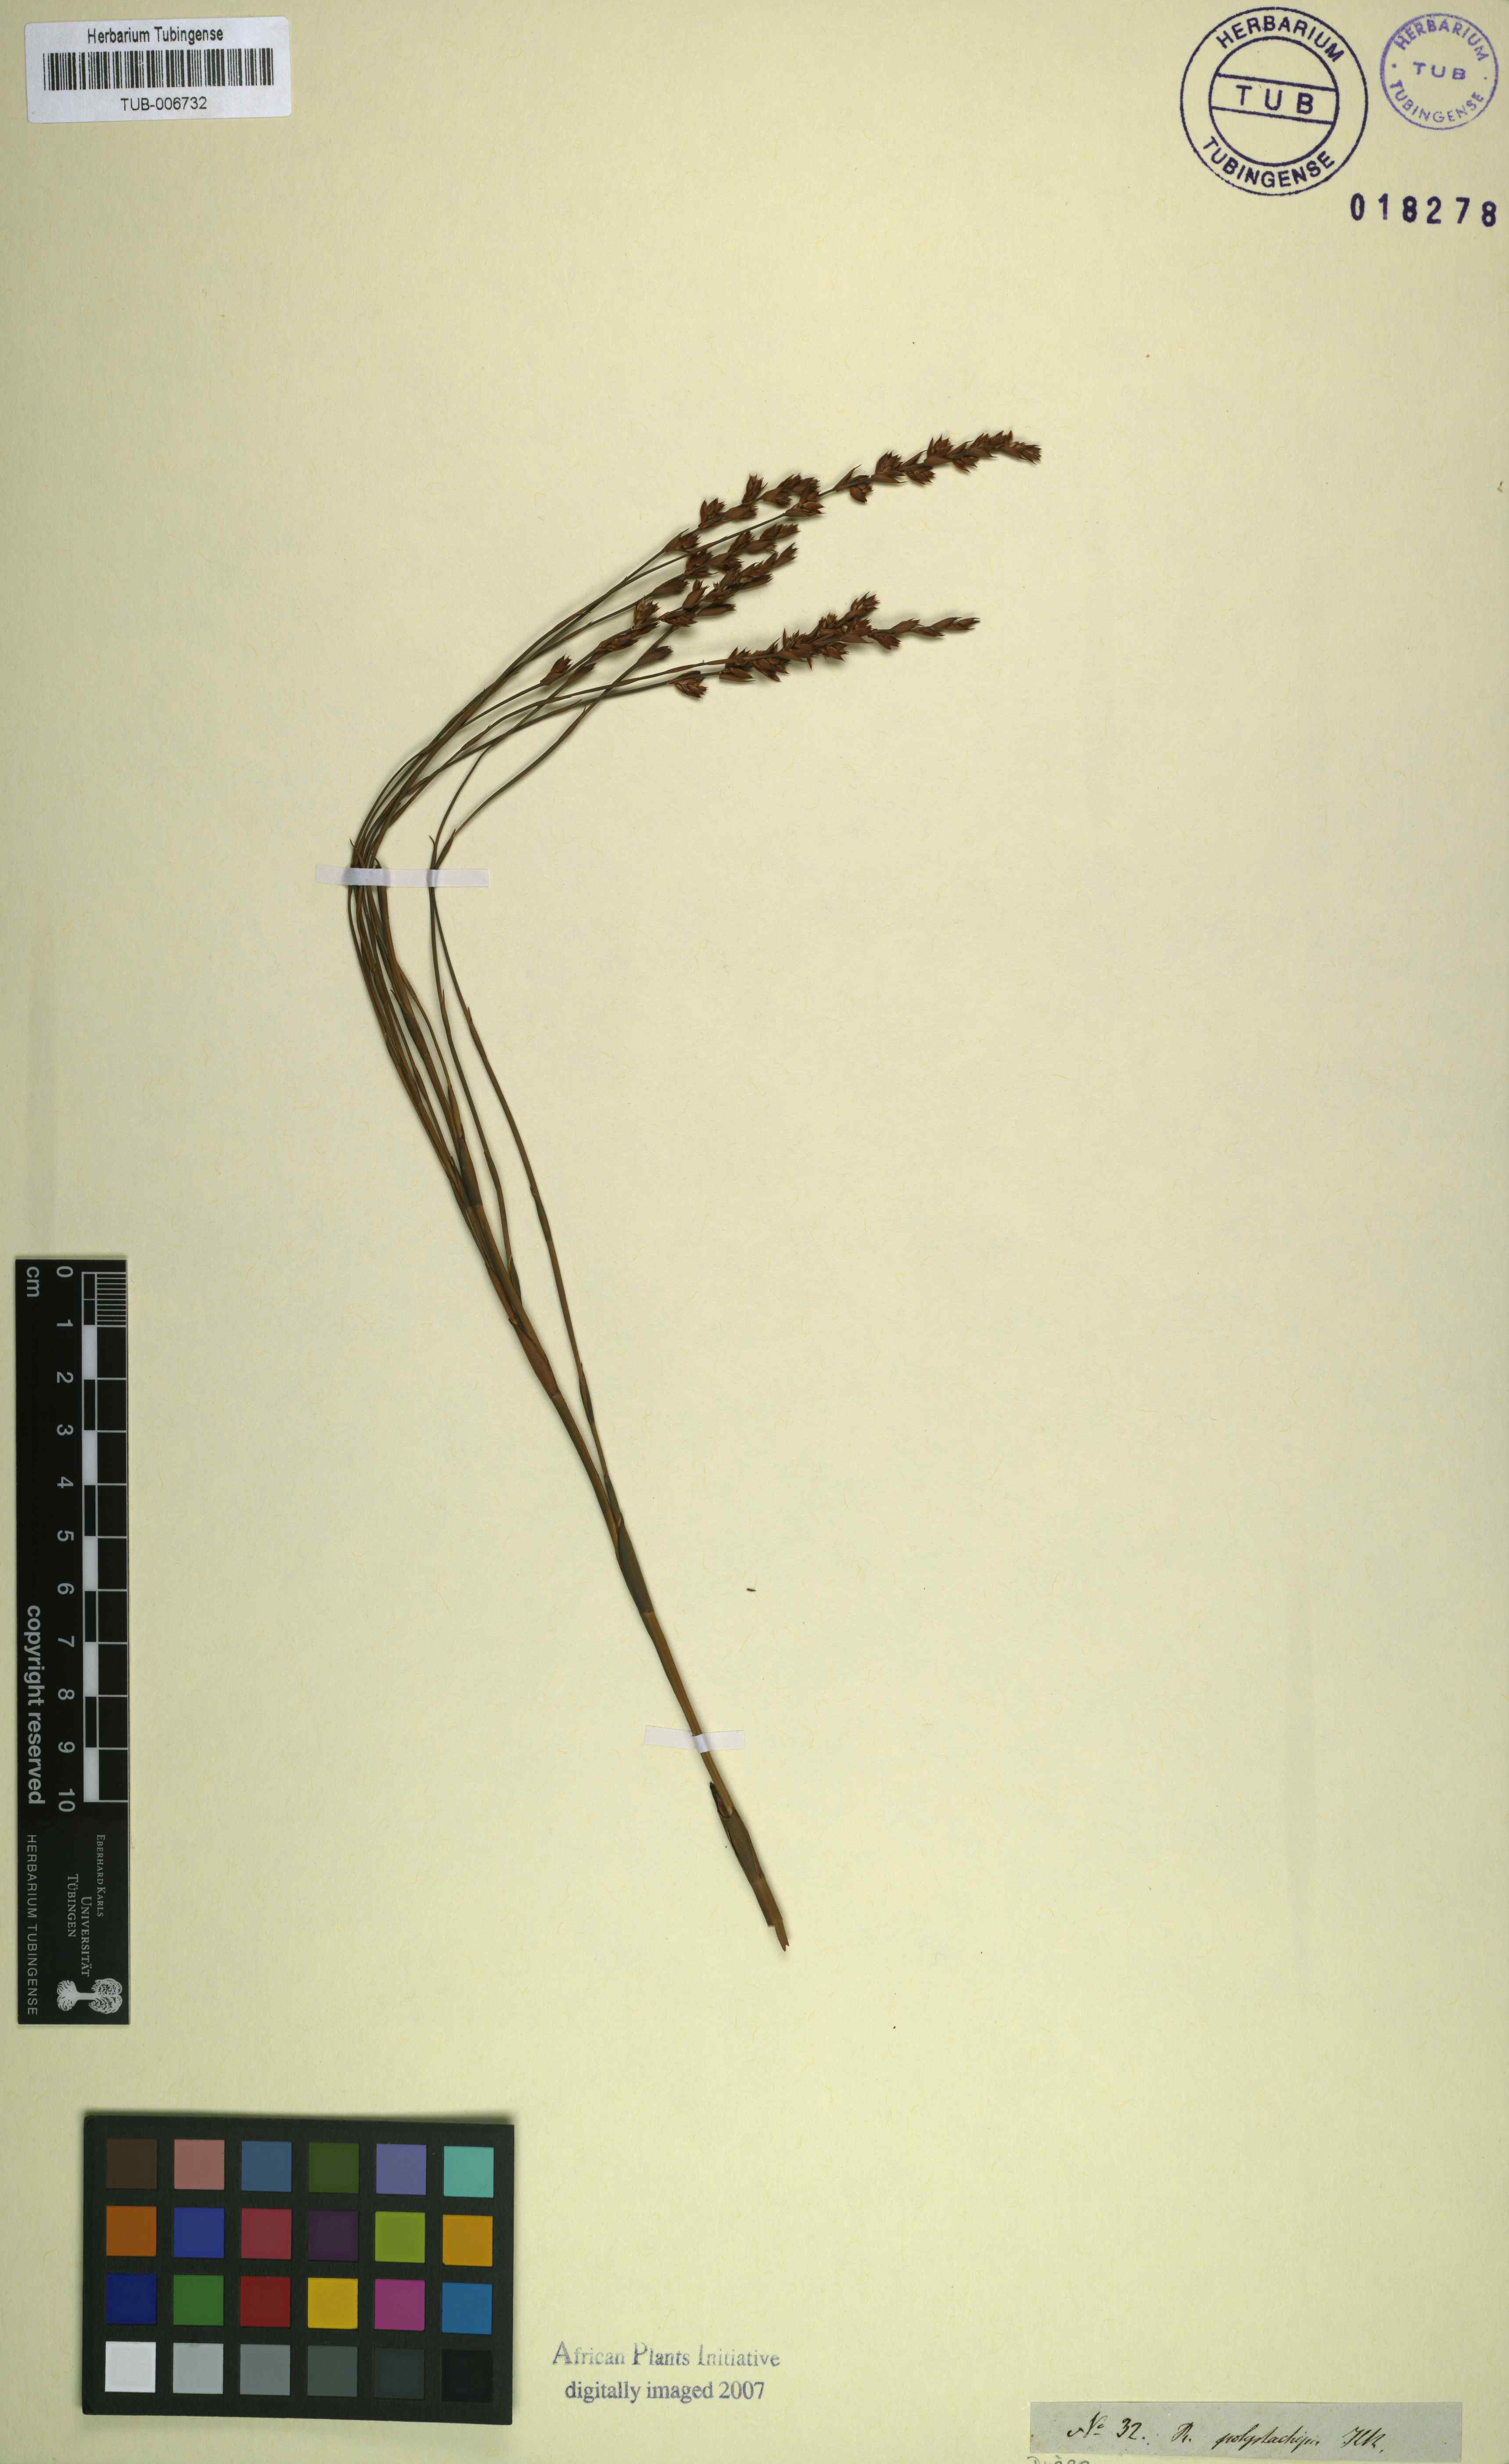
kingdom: Plantae
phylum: Tracheophyta
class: Liliopsida
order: Poales
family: Restionaceae
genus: Platycaulos
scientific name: Platycaulos callistachyus
